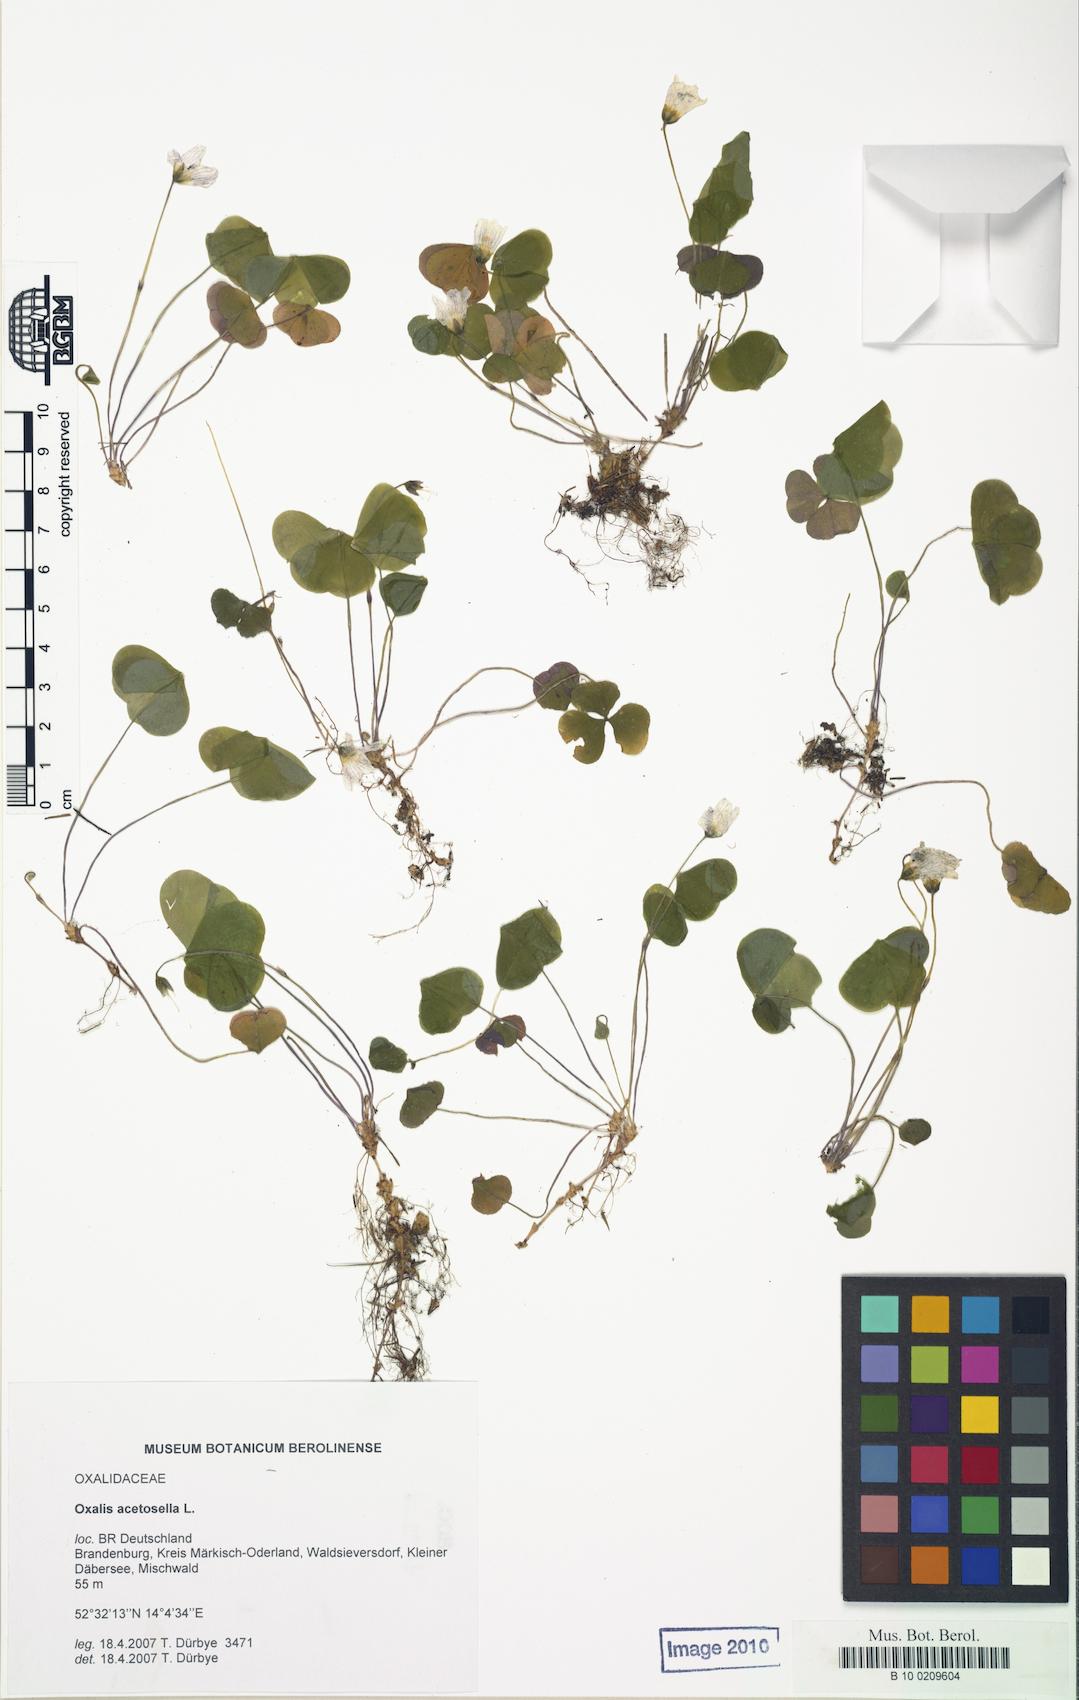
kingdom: Plantae
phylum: Tracheophyta
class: Magnoliopsida
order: Oxalidales
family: Oxalidaceae
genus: Oxalis
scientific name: Oxalis acetosella
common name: Wood-sorrel
